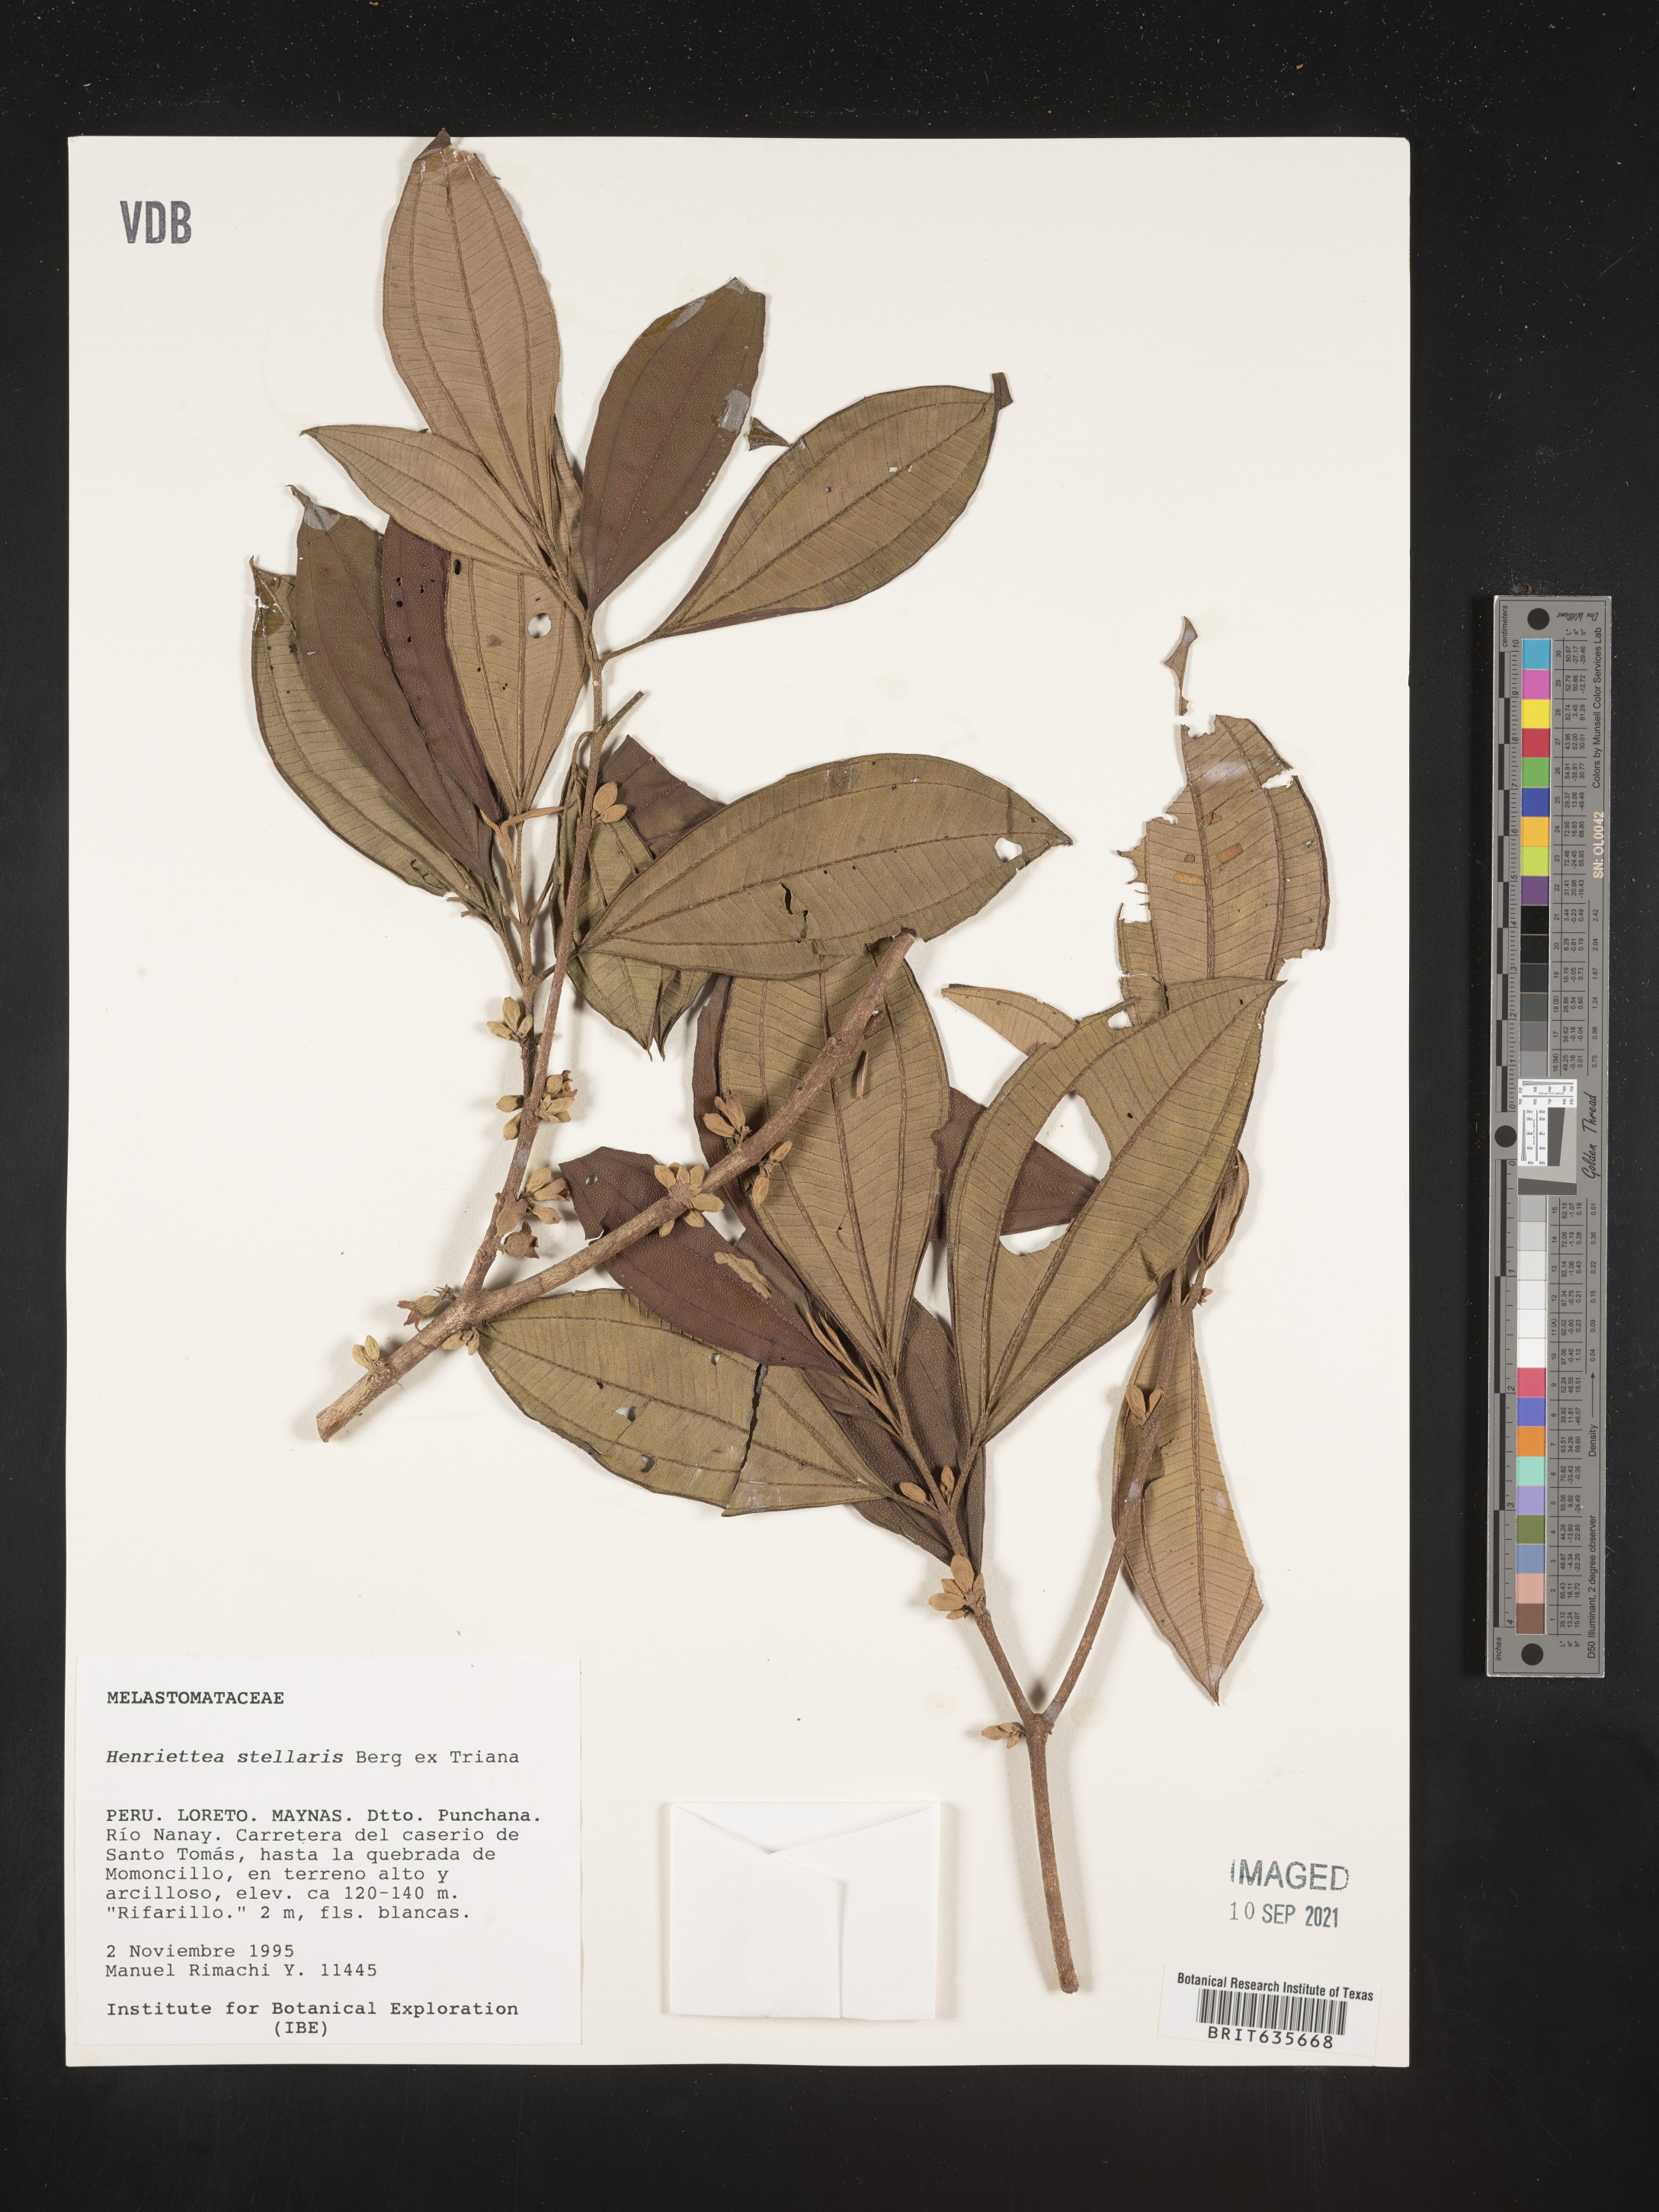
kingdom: Plantae
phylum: Tracheophyta
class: Magnoliopsida
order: Myrtales
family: Melastomataceae
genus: Henriettea
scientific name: Henriettea
